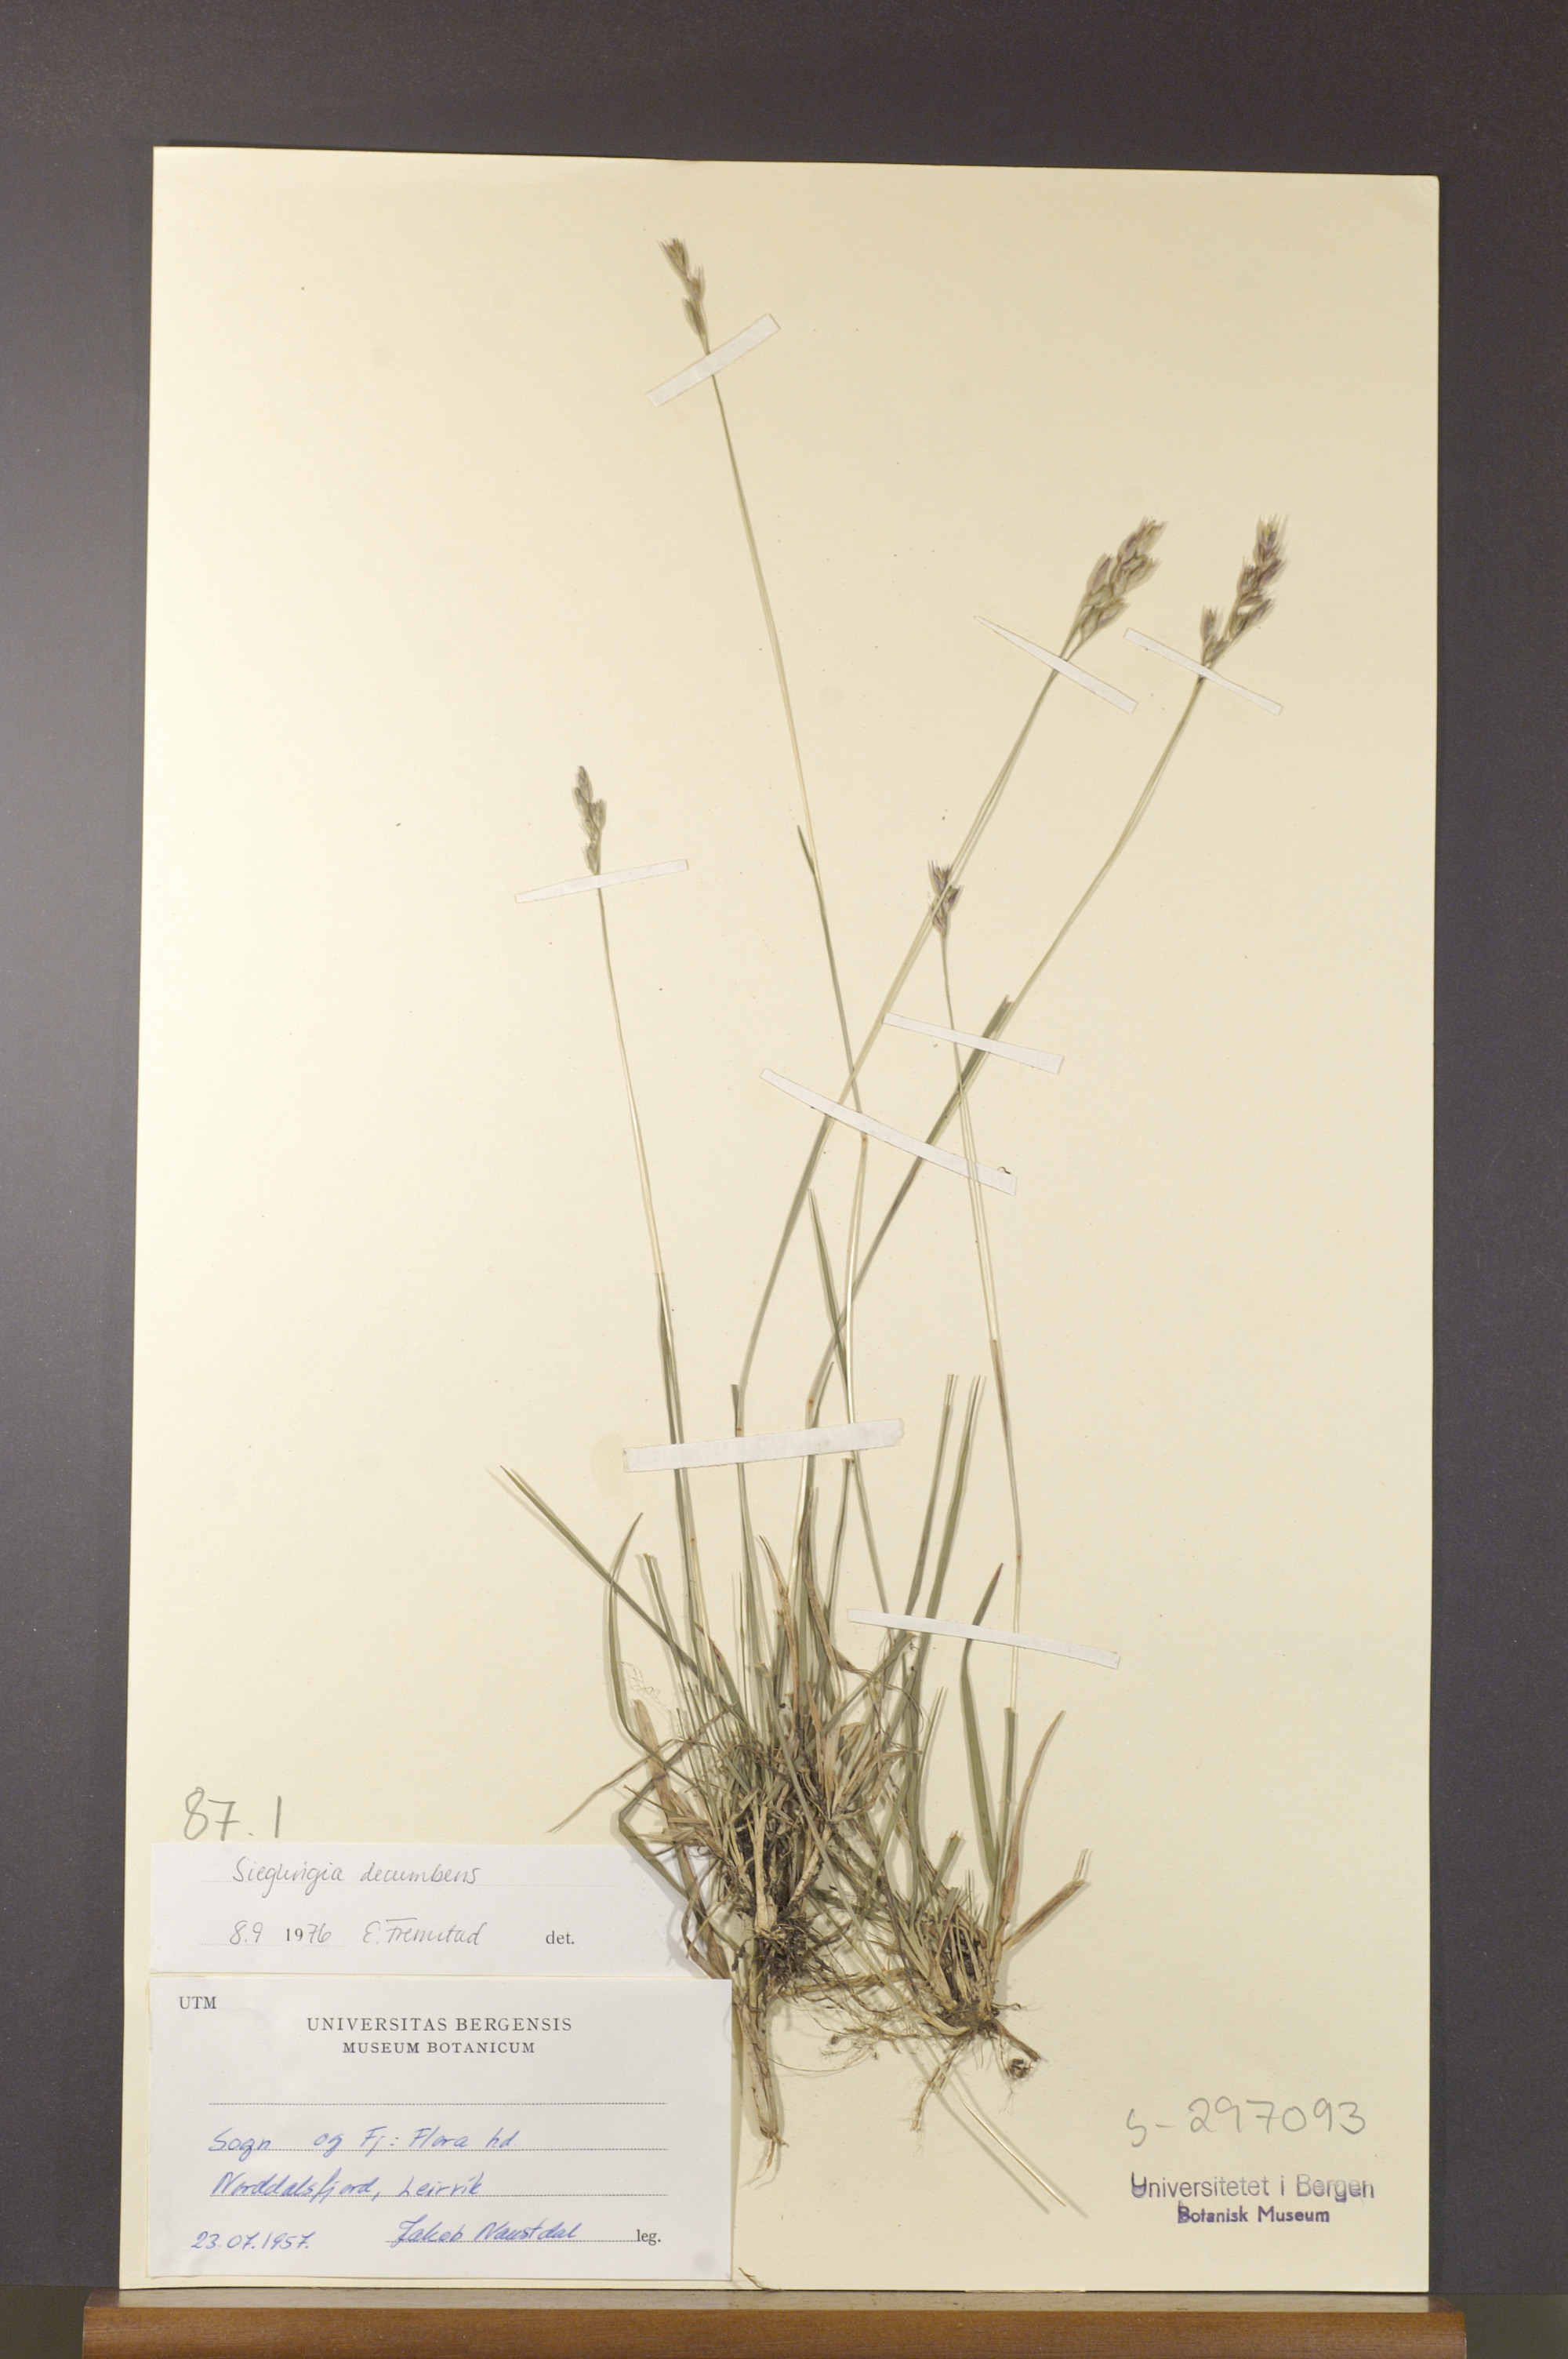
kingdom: Plantae
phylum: Tracheophyta
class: Liliopsida
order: Poales
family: Poaceae
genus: Danthonia
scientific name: Danthonia decumbens
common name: Common heathgrass
